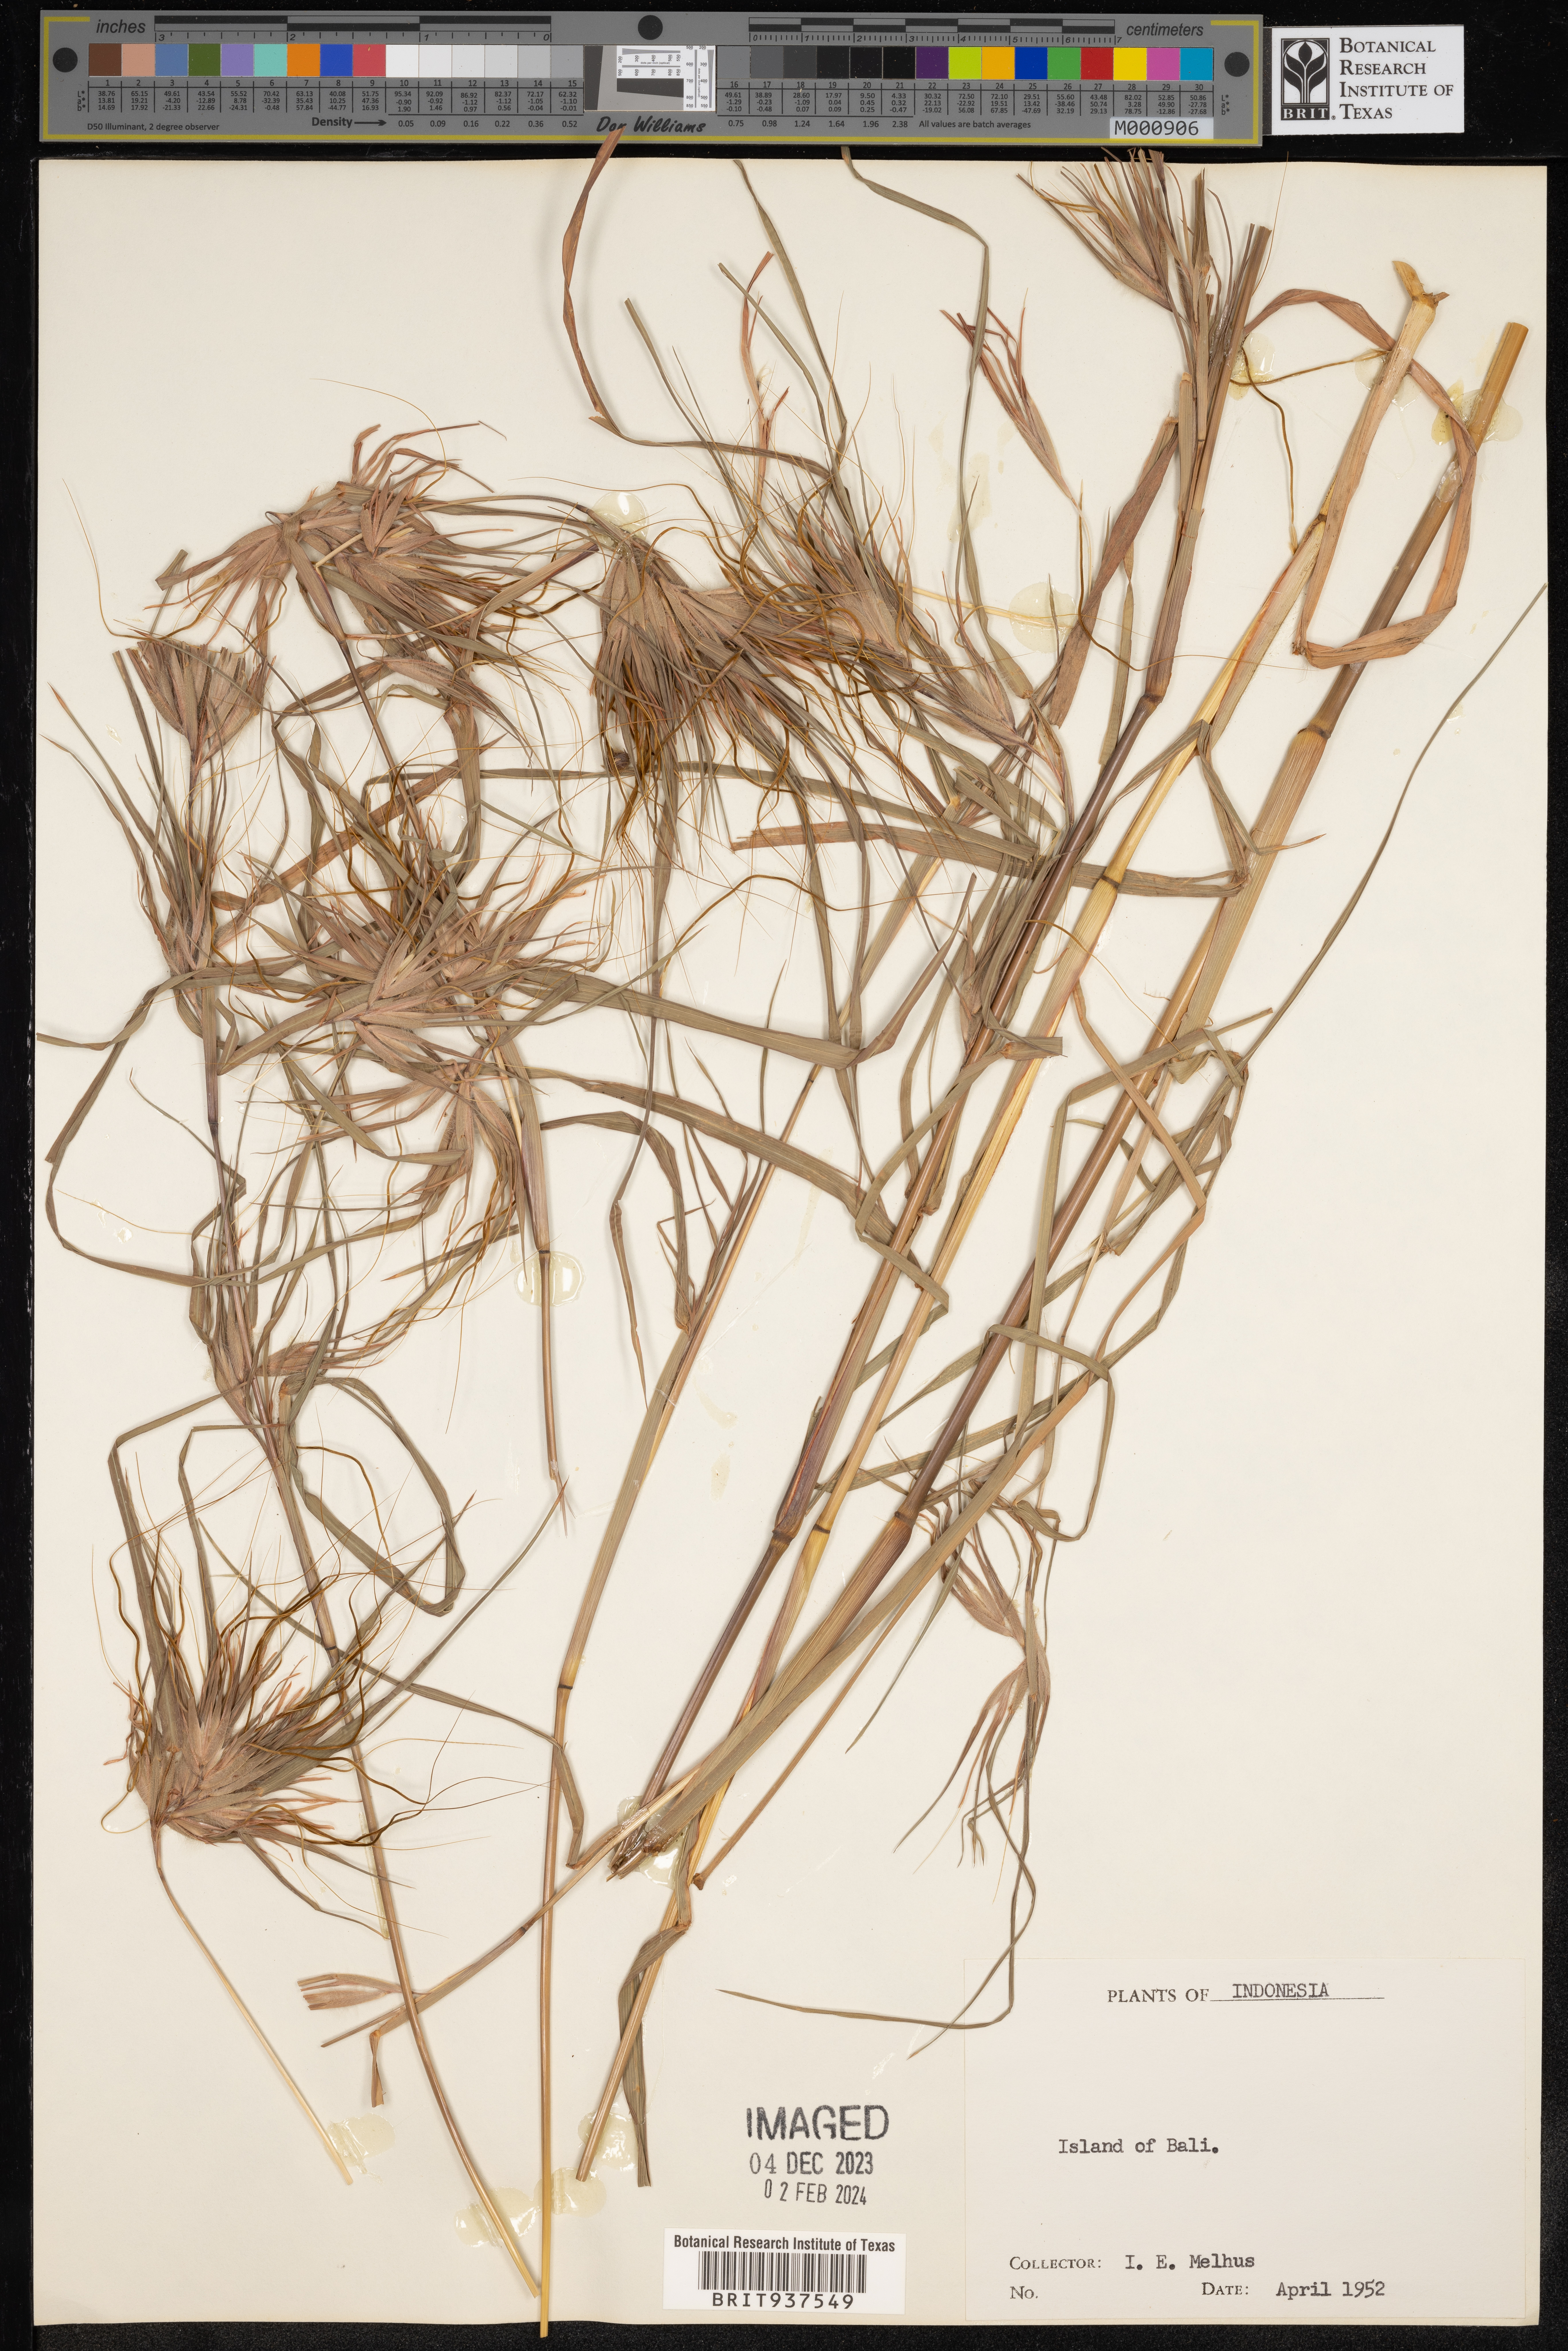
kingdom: Plantae
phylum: Tracheophyta
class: Liliopsida
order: Poales
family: Poaceae
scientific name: Poaceae
